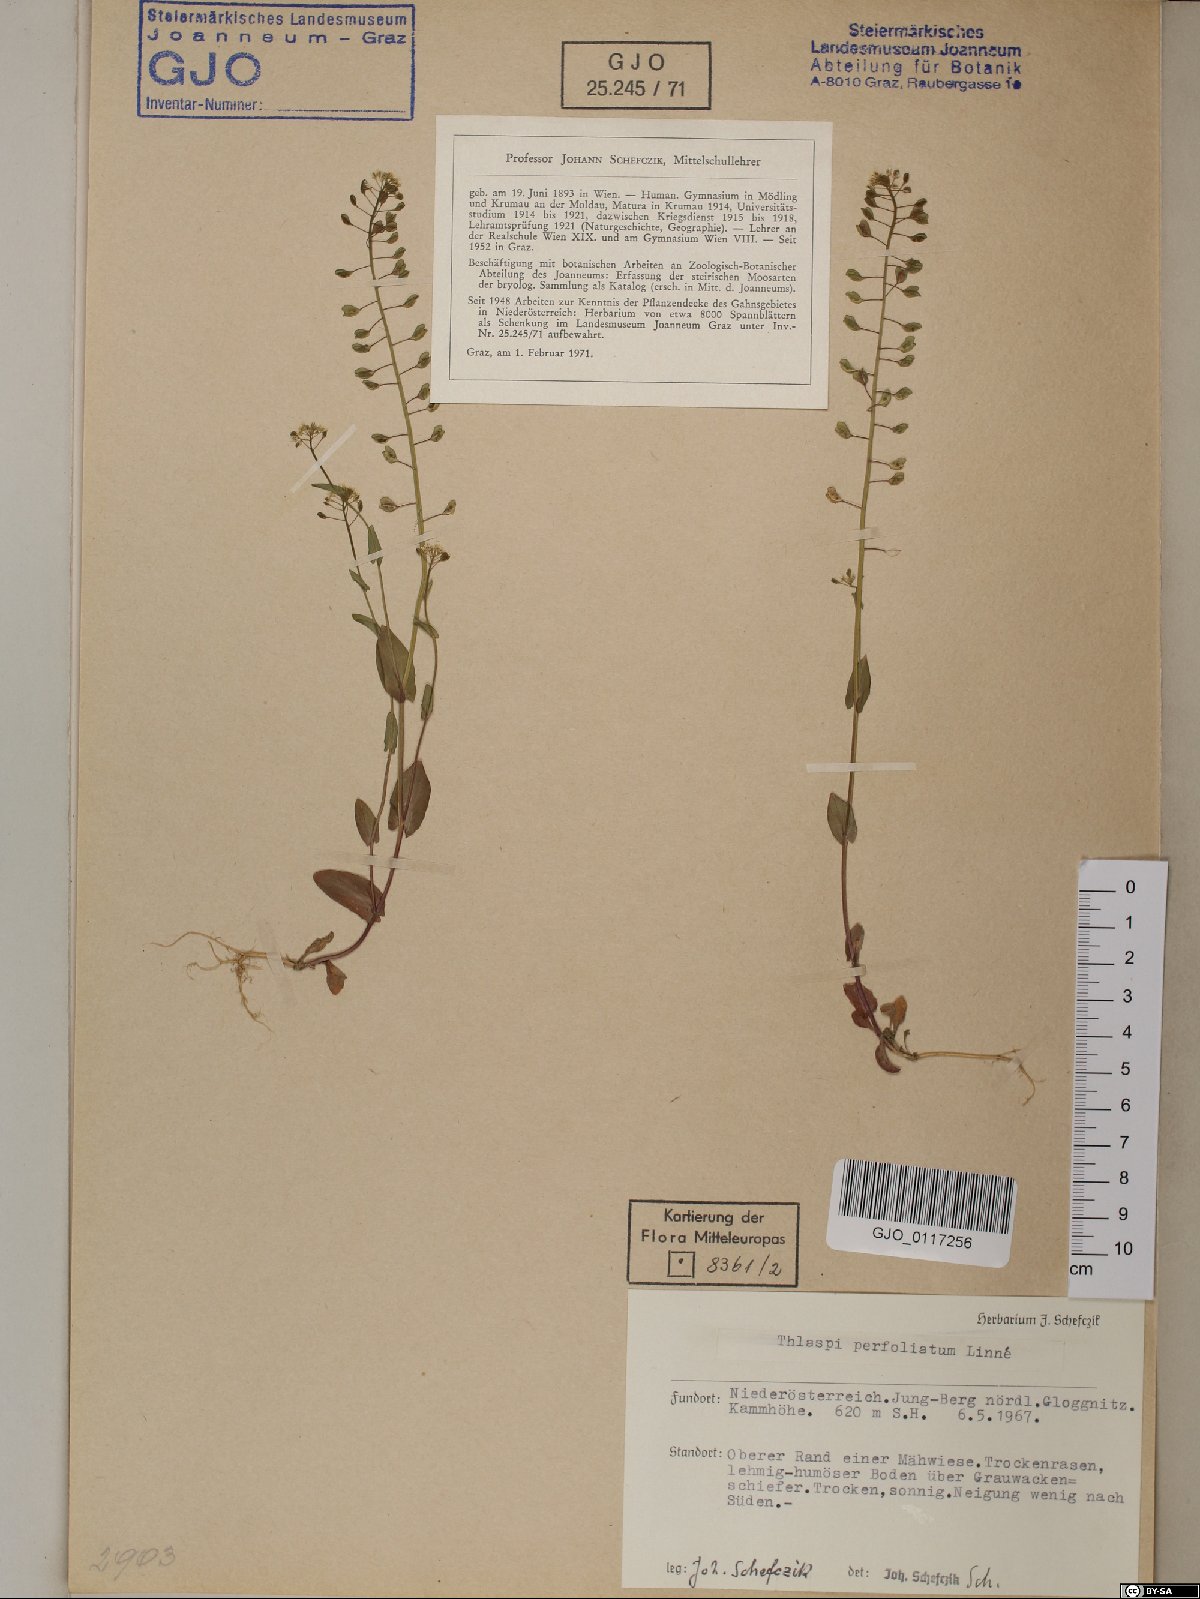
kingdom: Plantae
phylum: Tracheophyta
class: Magnoliopsida
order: Brassicales
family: Brassicaceae
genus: Noccaea
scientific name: Noccaea perfoliata
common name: Perfoliate pennycress
